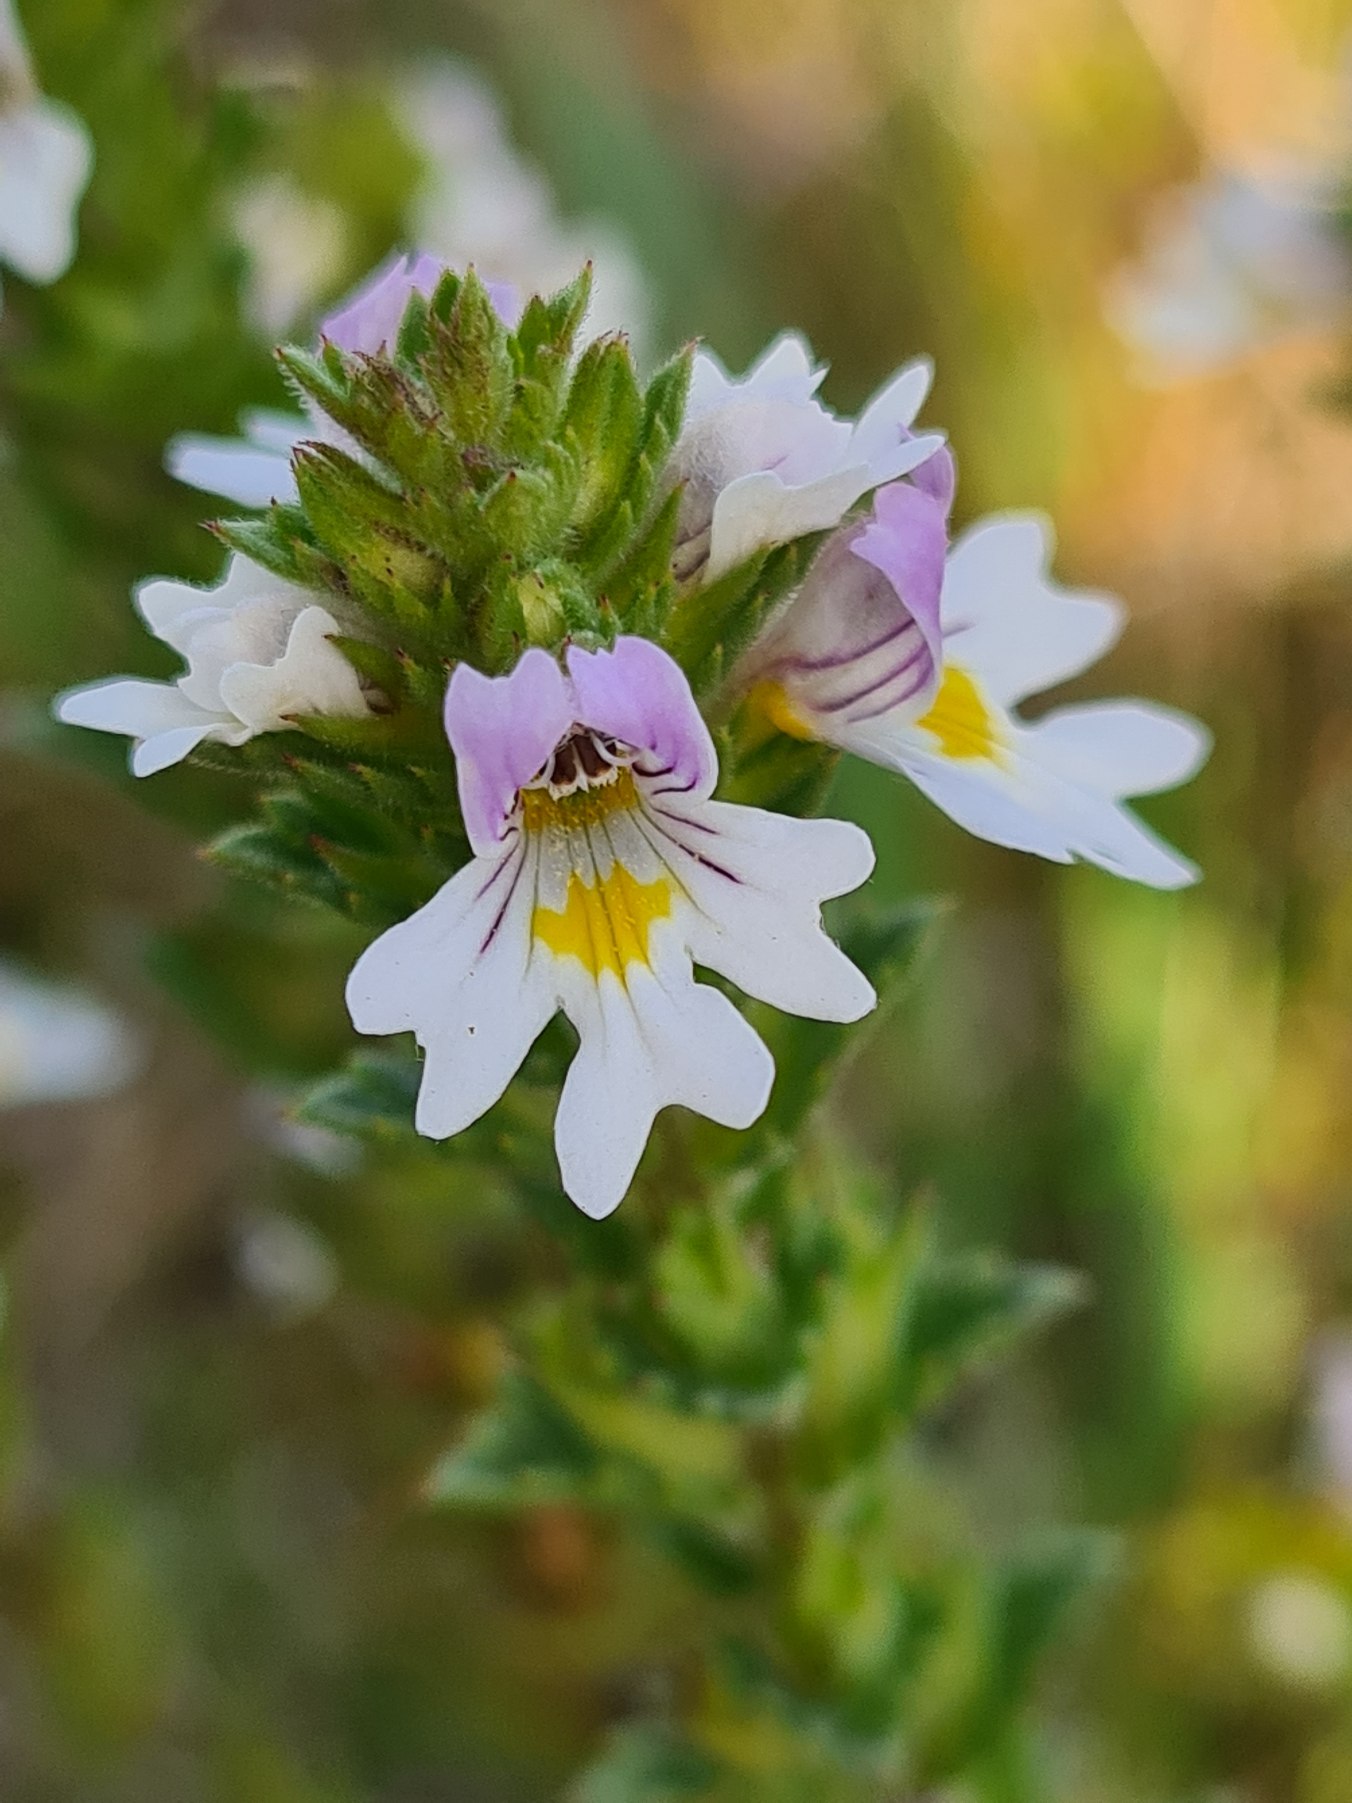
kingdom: Plantae
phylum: Tracheophyta
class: Magnoliopsida
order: Lamiales
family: Orobanchaceae
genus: Euphrasia
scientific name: Euphrasia stricta
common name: Spids øjentrøst
